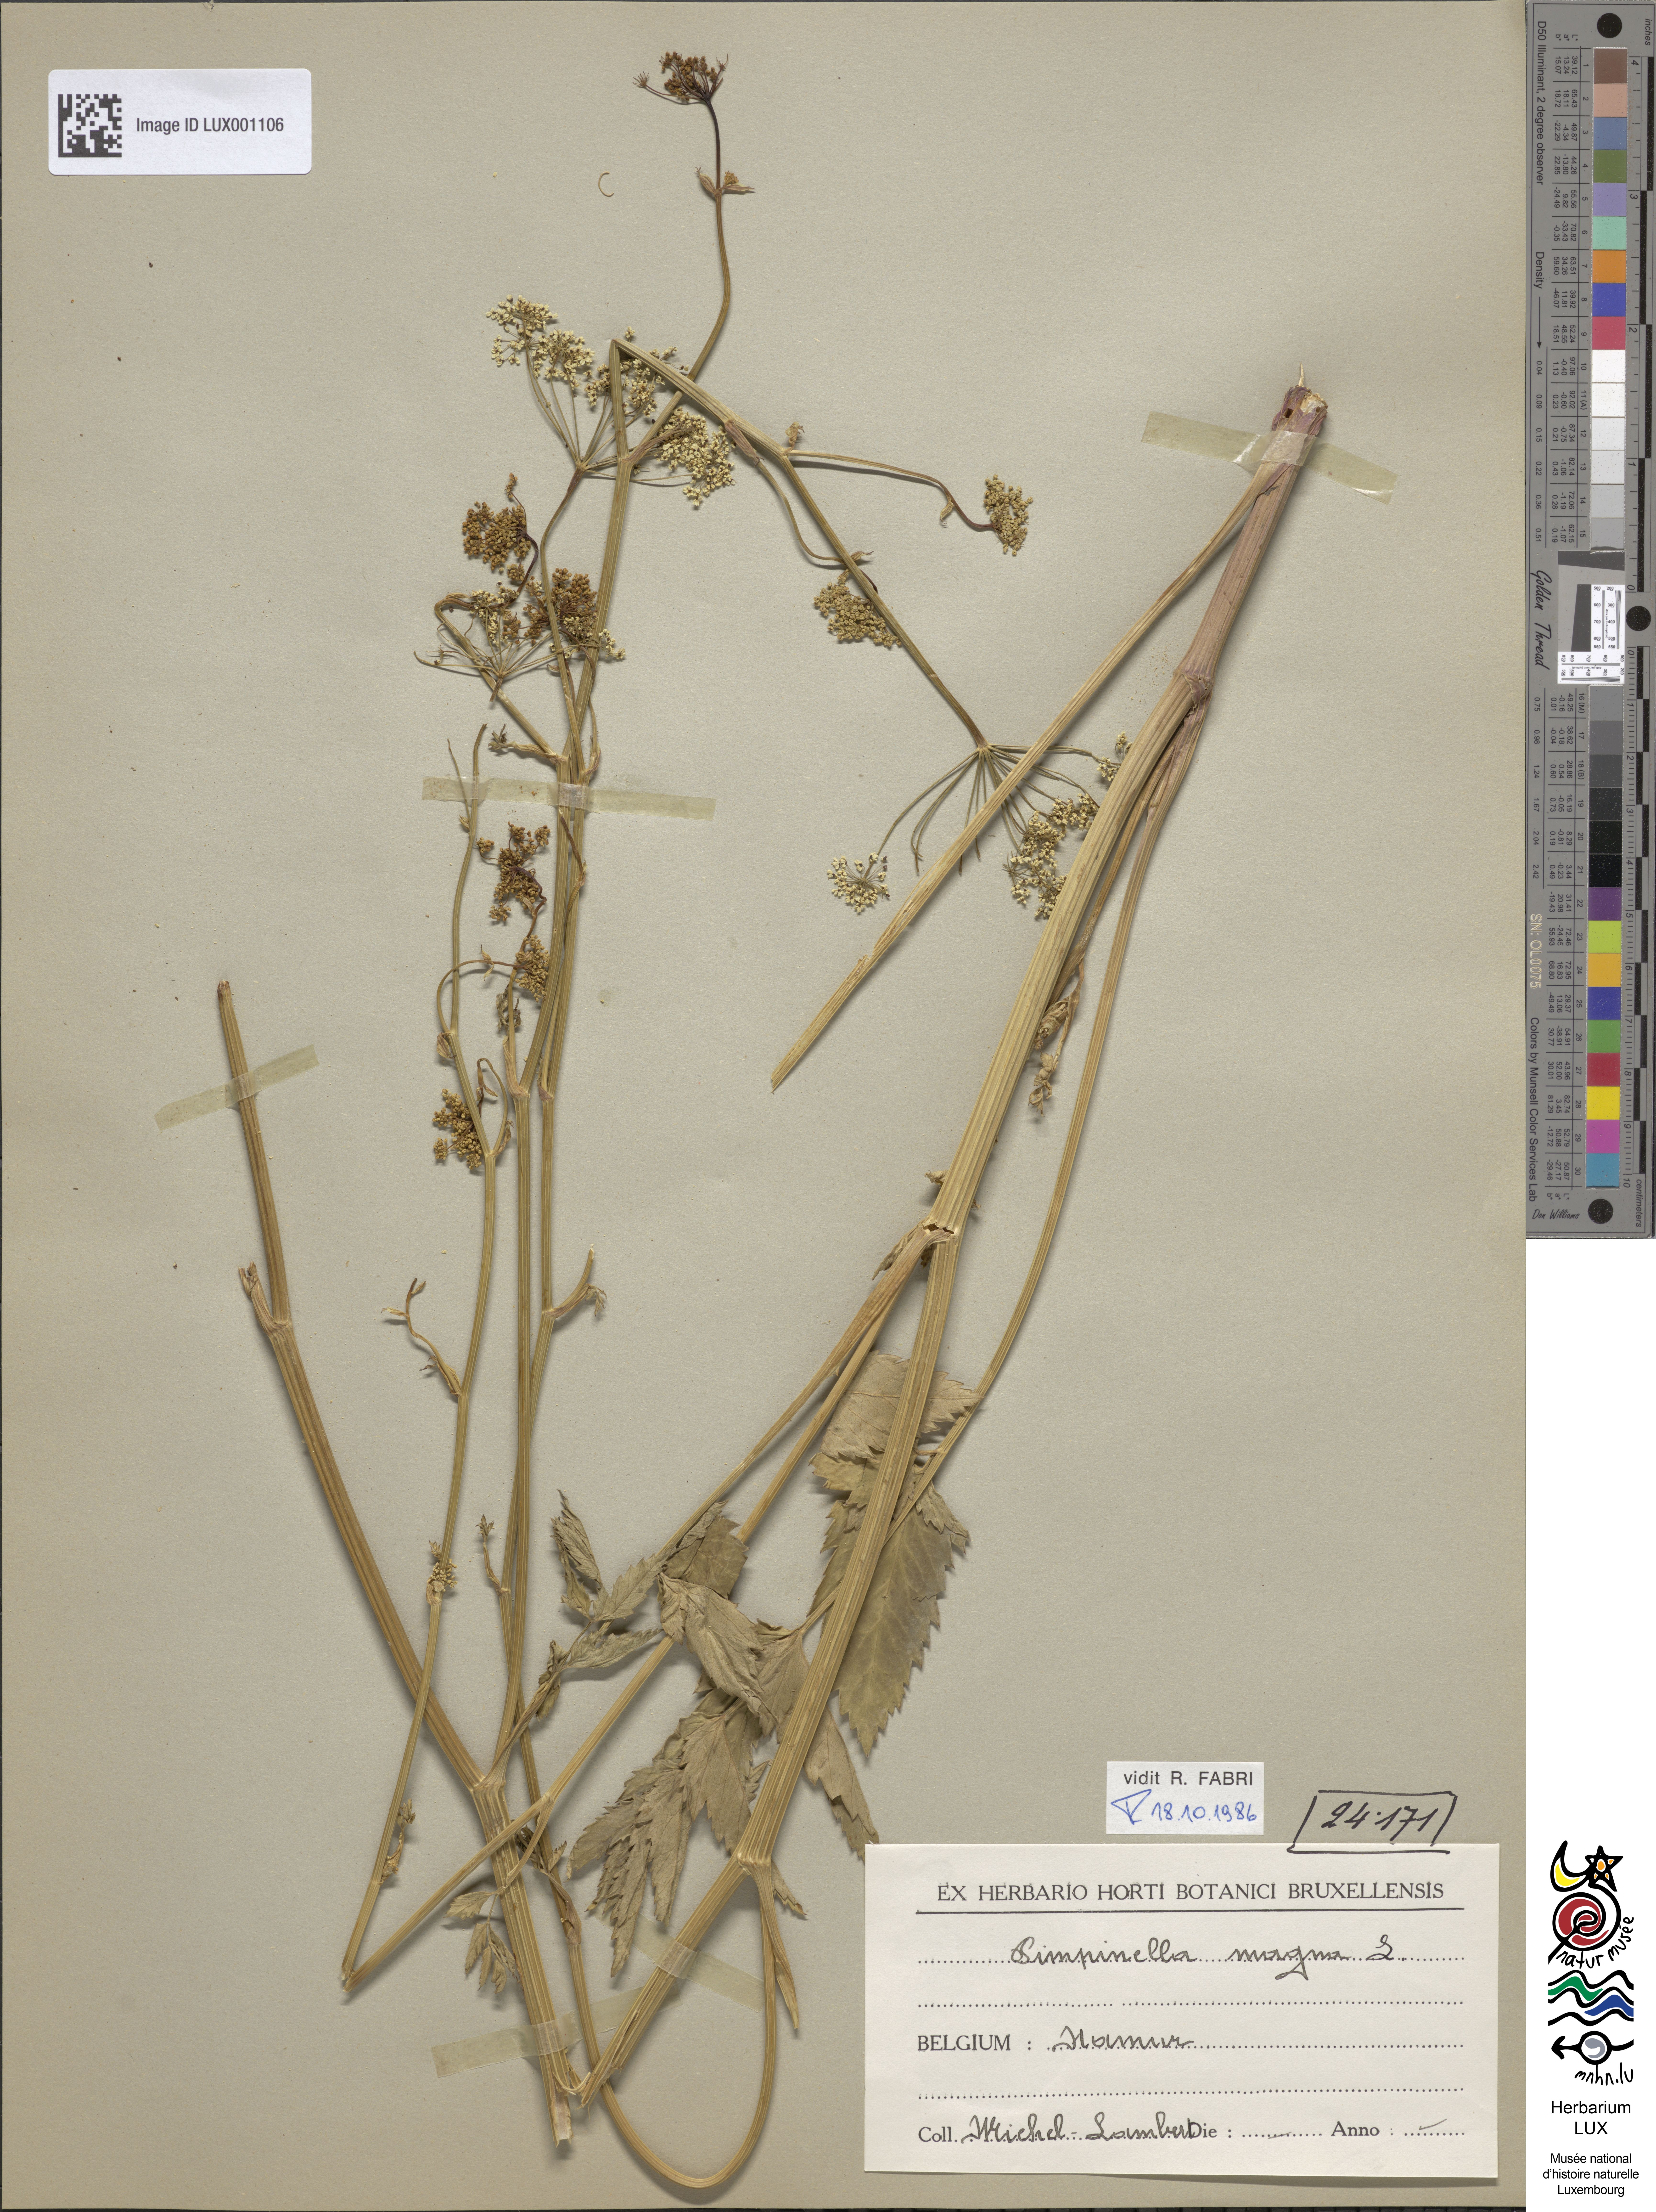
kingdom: Plantae
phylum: Tracheophyta
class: Magnoliopsida
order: Apiales
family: Apiaceae
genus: Pimpinella
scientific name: Pimpinella major
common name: Greater burnet-saxifrage
